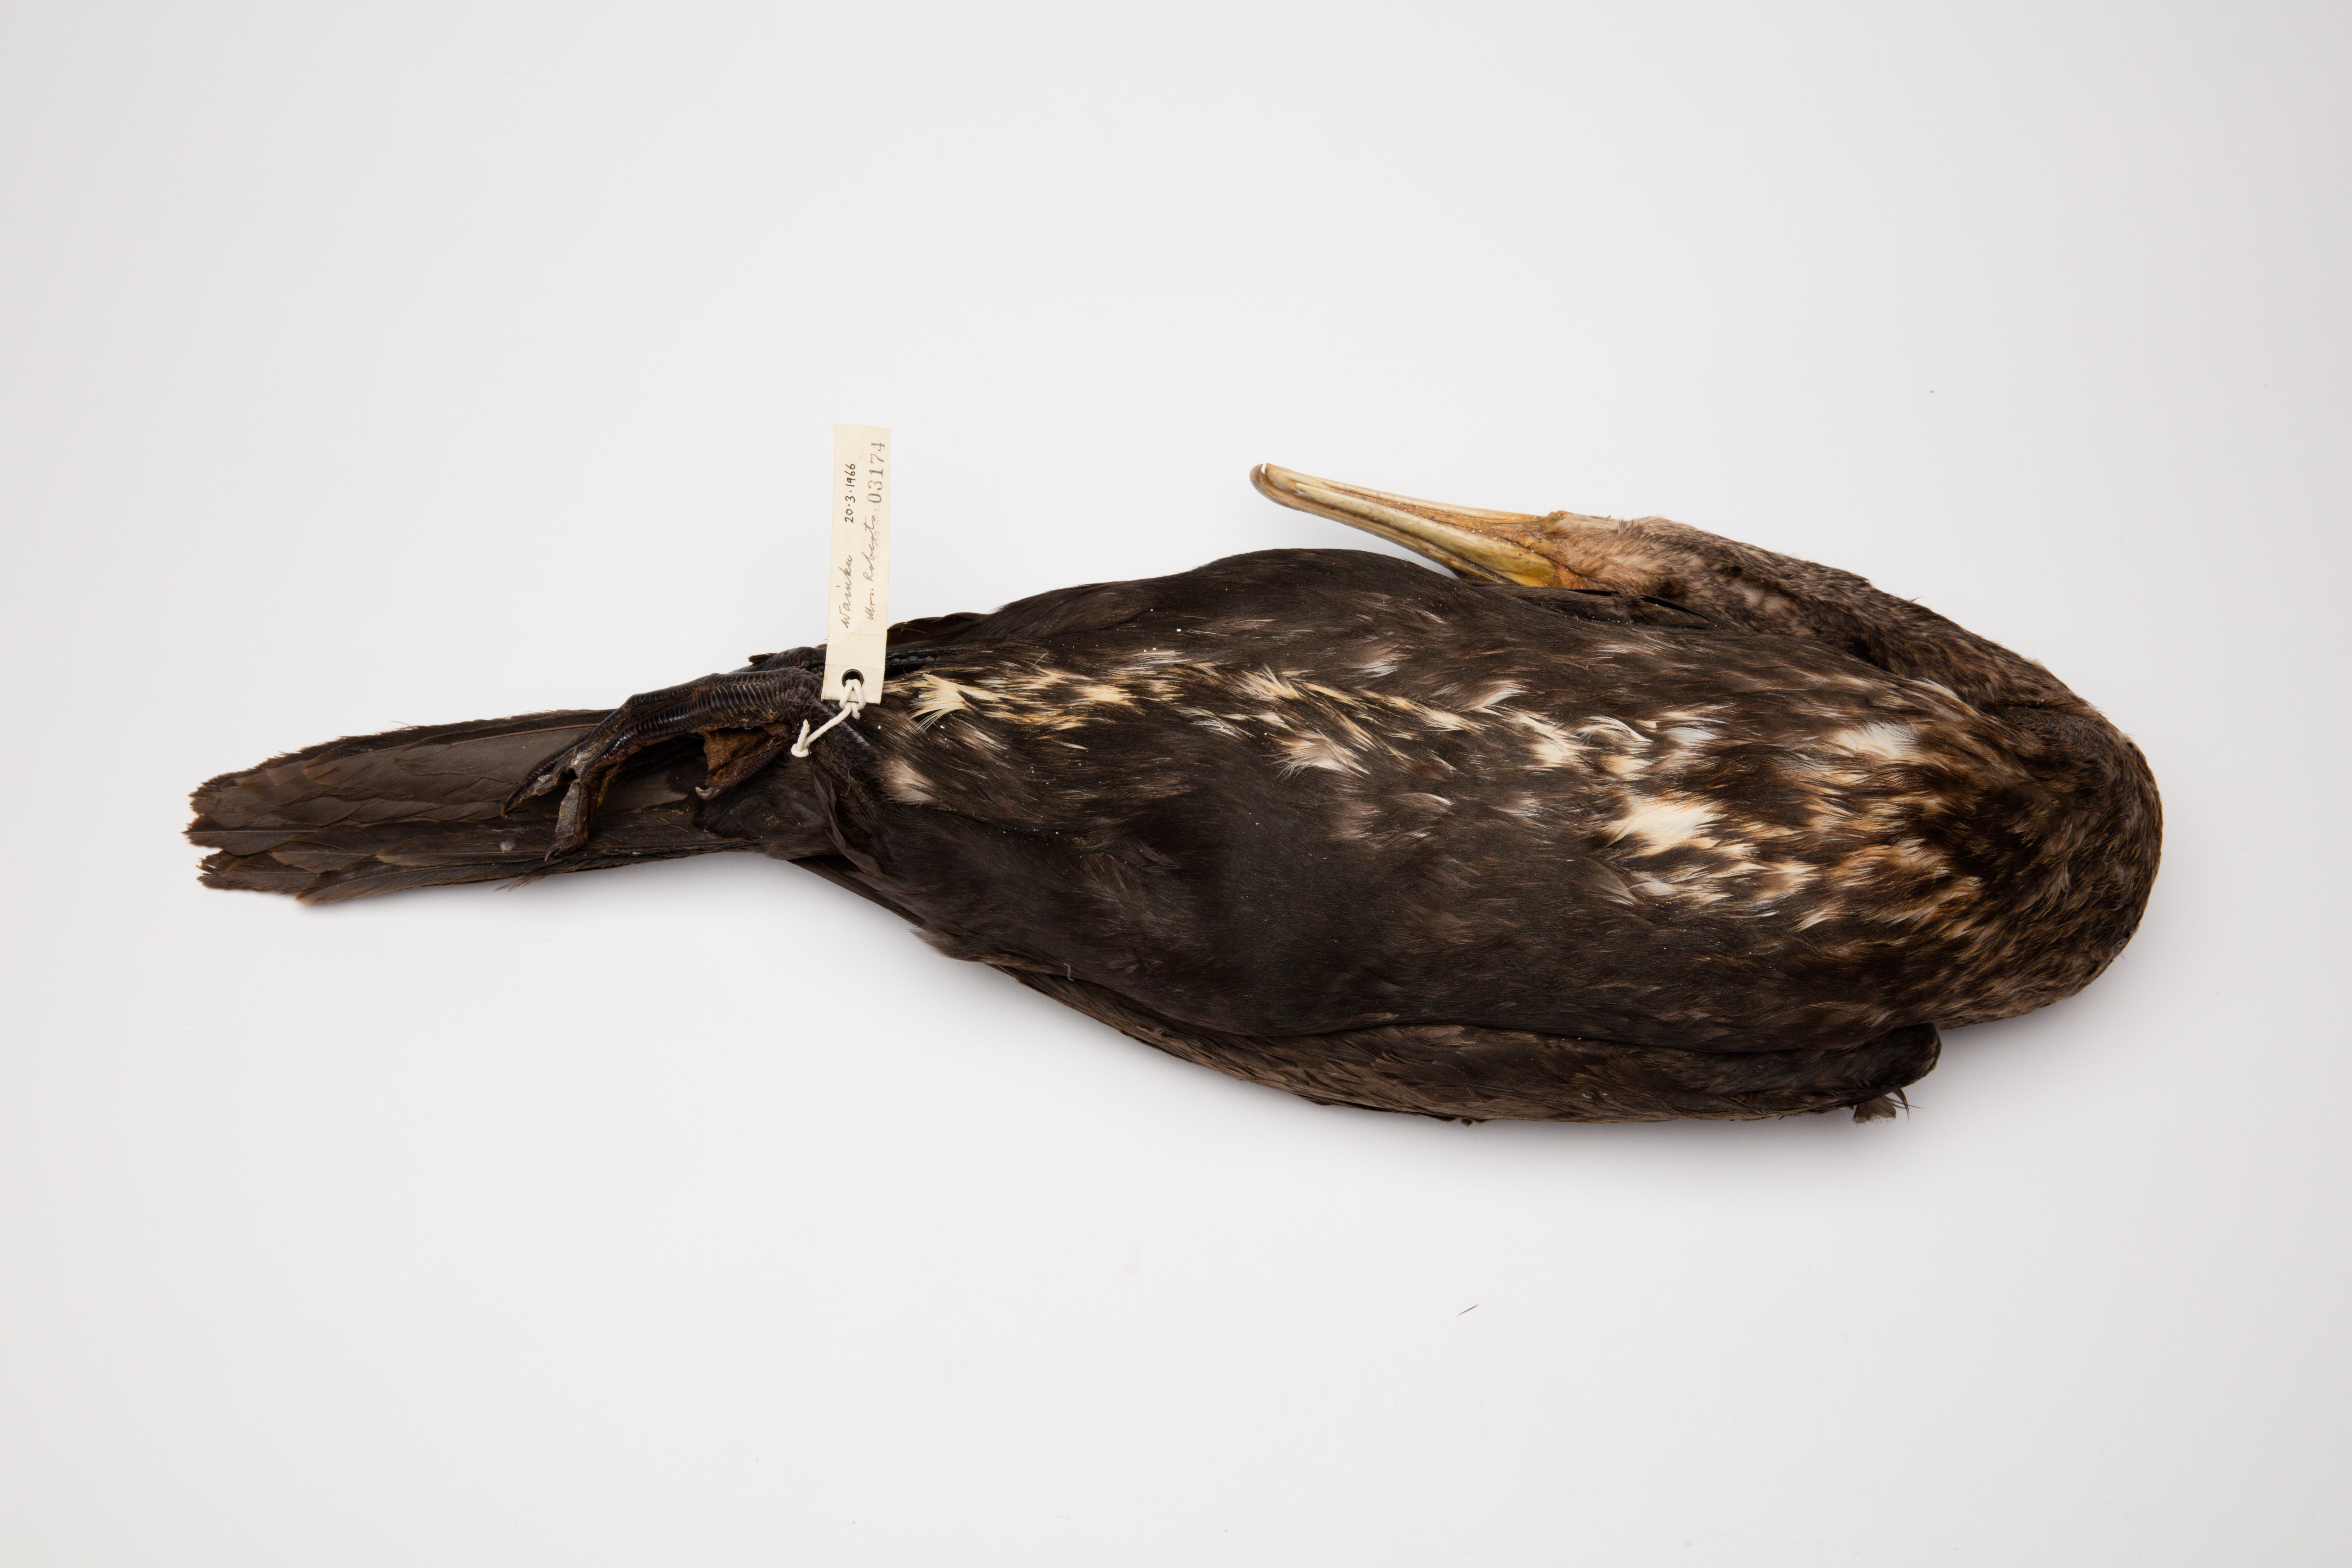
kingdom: Animalia
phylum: Chordata
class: Aves
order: Suliformes
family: Phalacrocoracidae
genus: Phalacrocorax
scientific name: Phalacrocorax carbo
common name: Great cormorant
